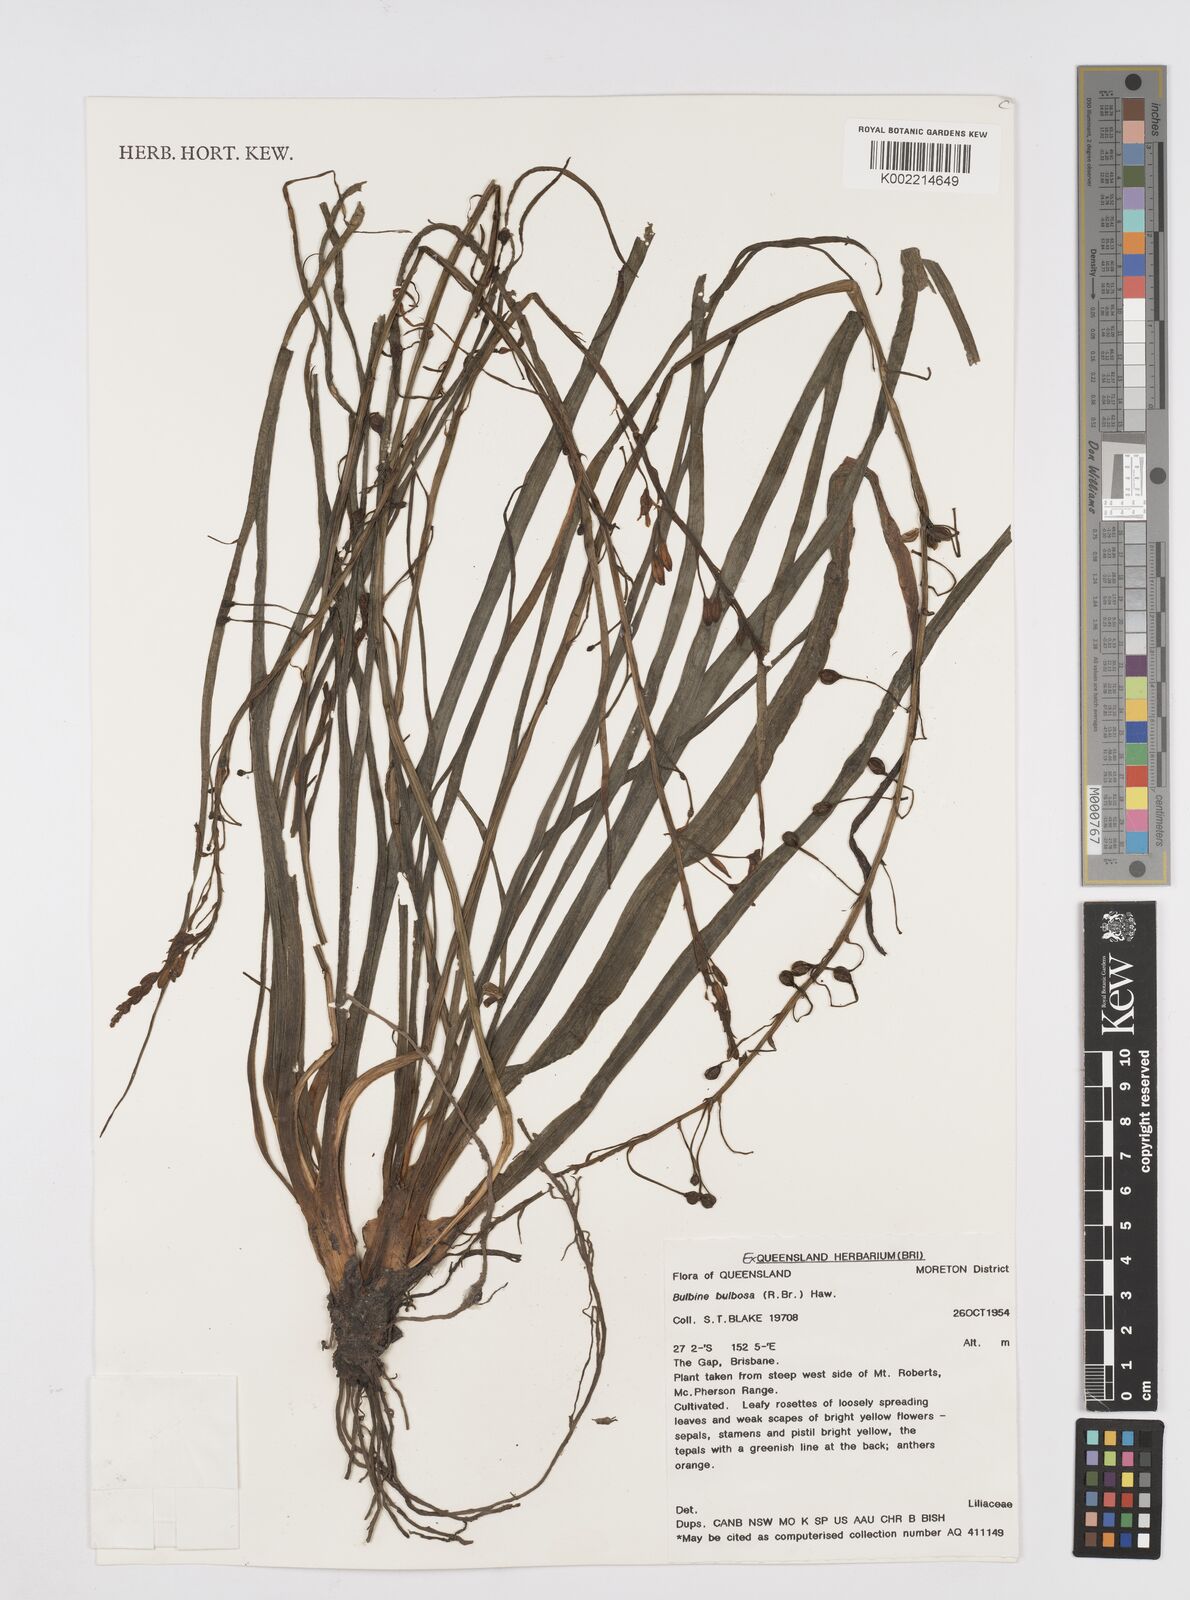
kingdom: Plantae
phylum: Tracheophyta
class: Liliopsida
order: Asparagales
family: Asphodelaceae
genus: Bulbine
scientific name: Bulbine bulbosa
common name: Golden-lily
